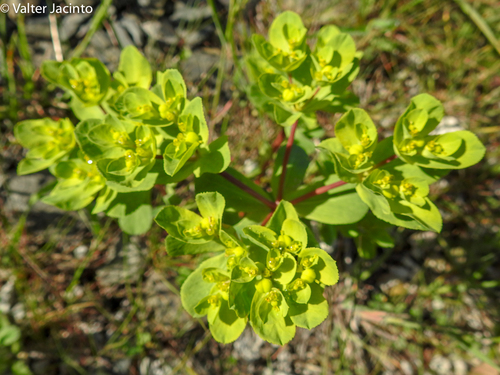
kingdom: Plantae
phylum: Tracheophyta
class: Magnoliopsida
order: Malpighiales
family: Euphorbiaceae
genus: Euphorbia
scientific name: Euphorbia helioscopia
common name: Sun spurge
